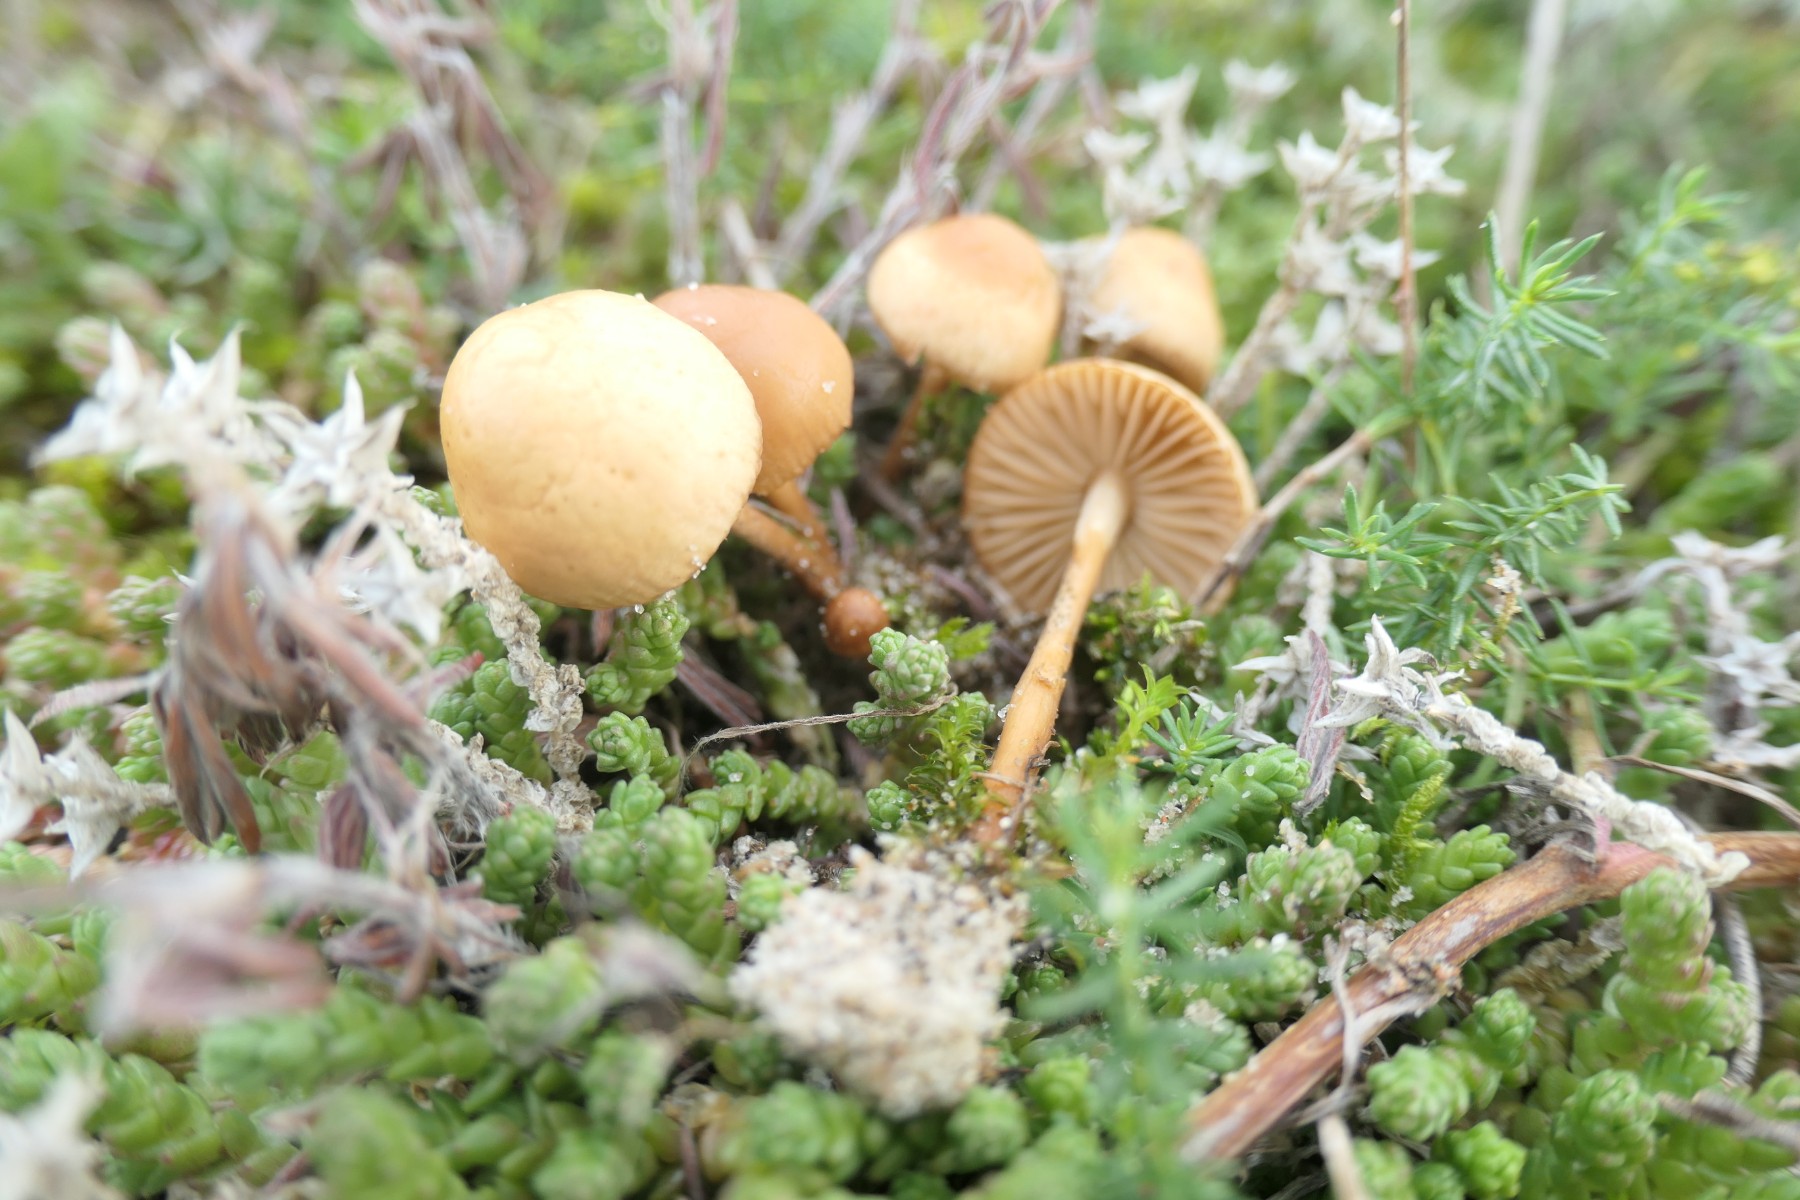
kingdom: Fungi
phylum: Basidiomycota
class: Agaricomycetes
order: Agaricales
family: Marasmiaceae
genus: Marasmius
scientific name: Marasmius oreades
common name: elledans-bruskhat
